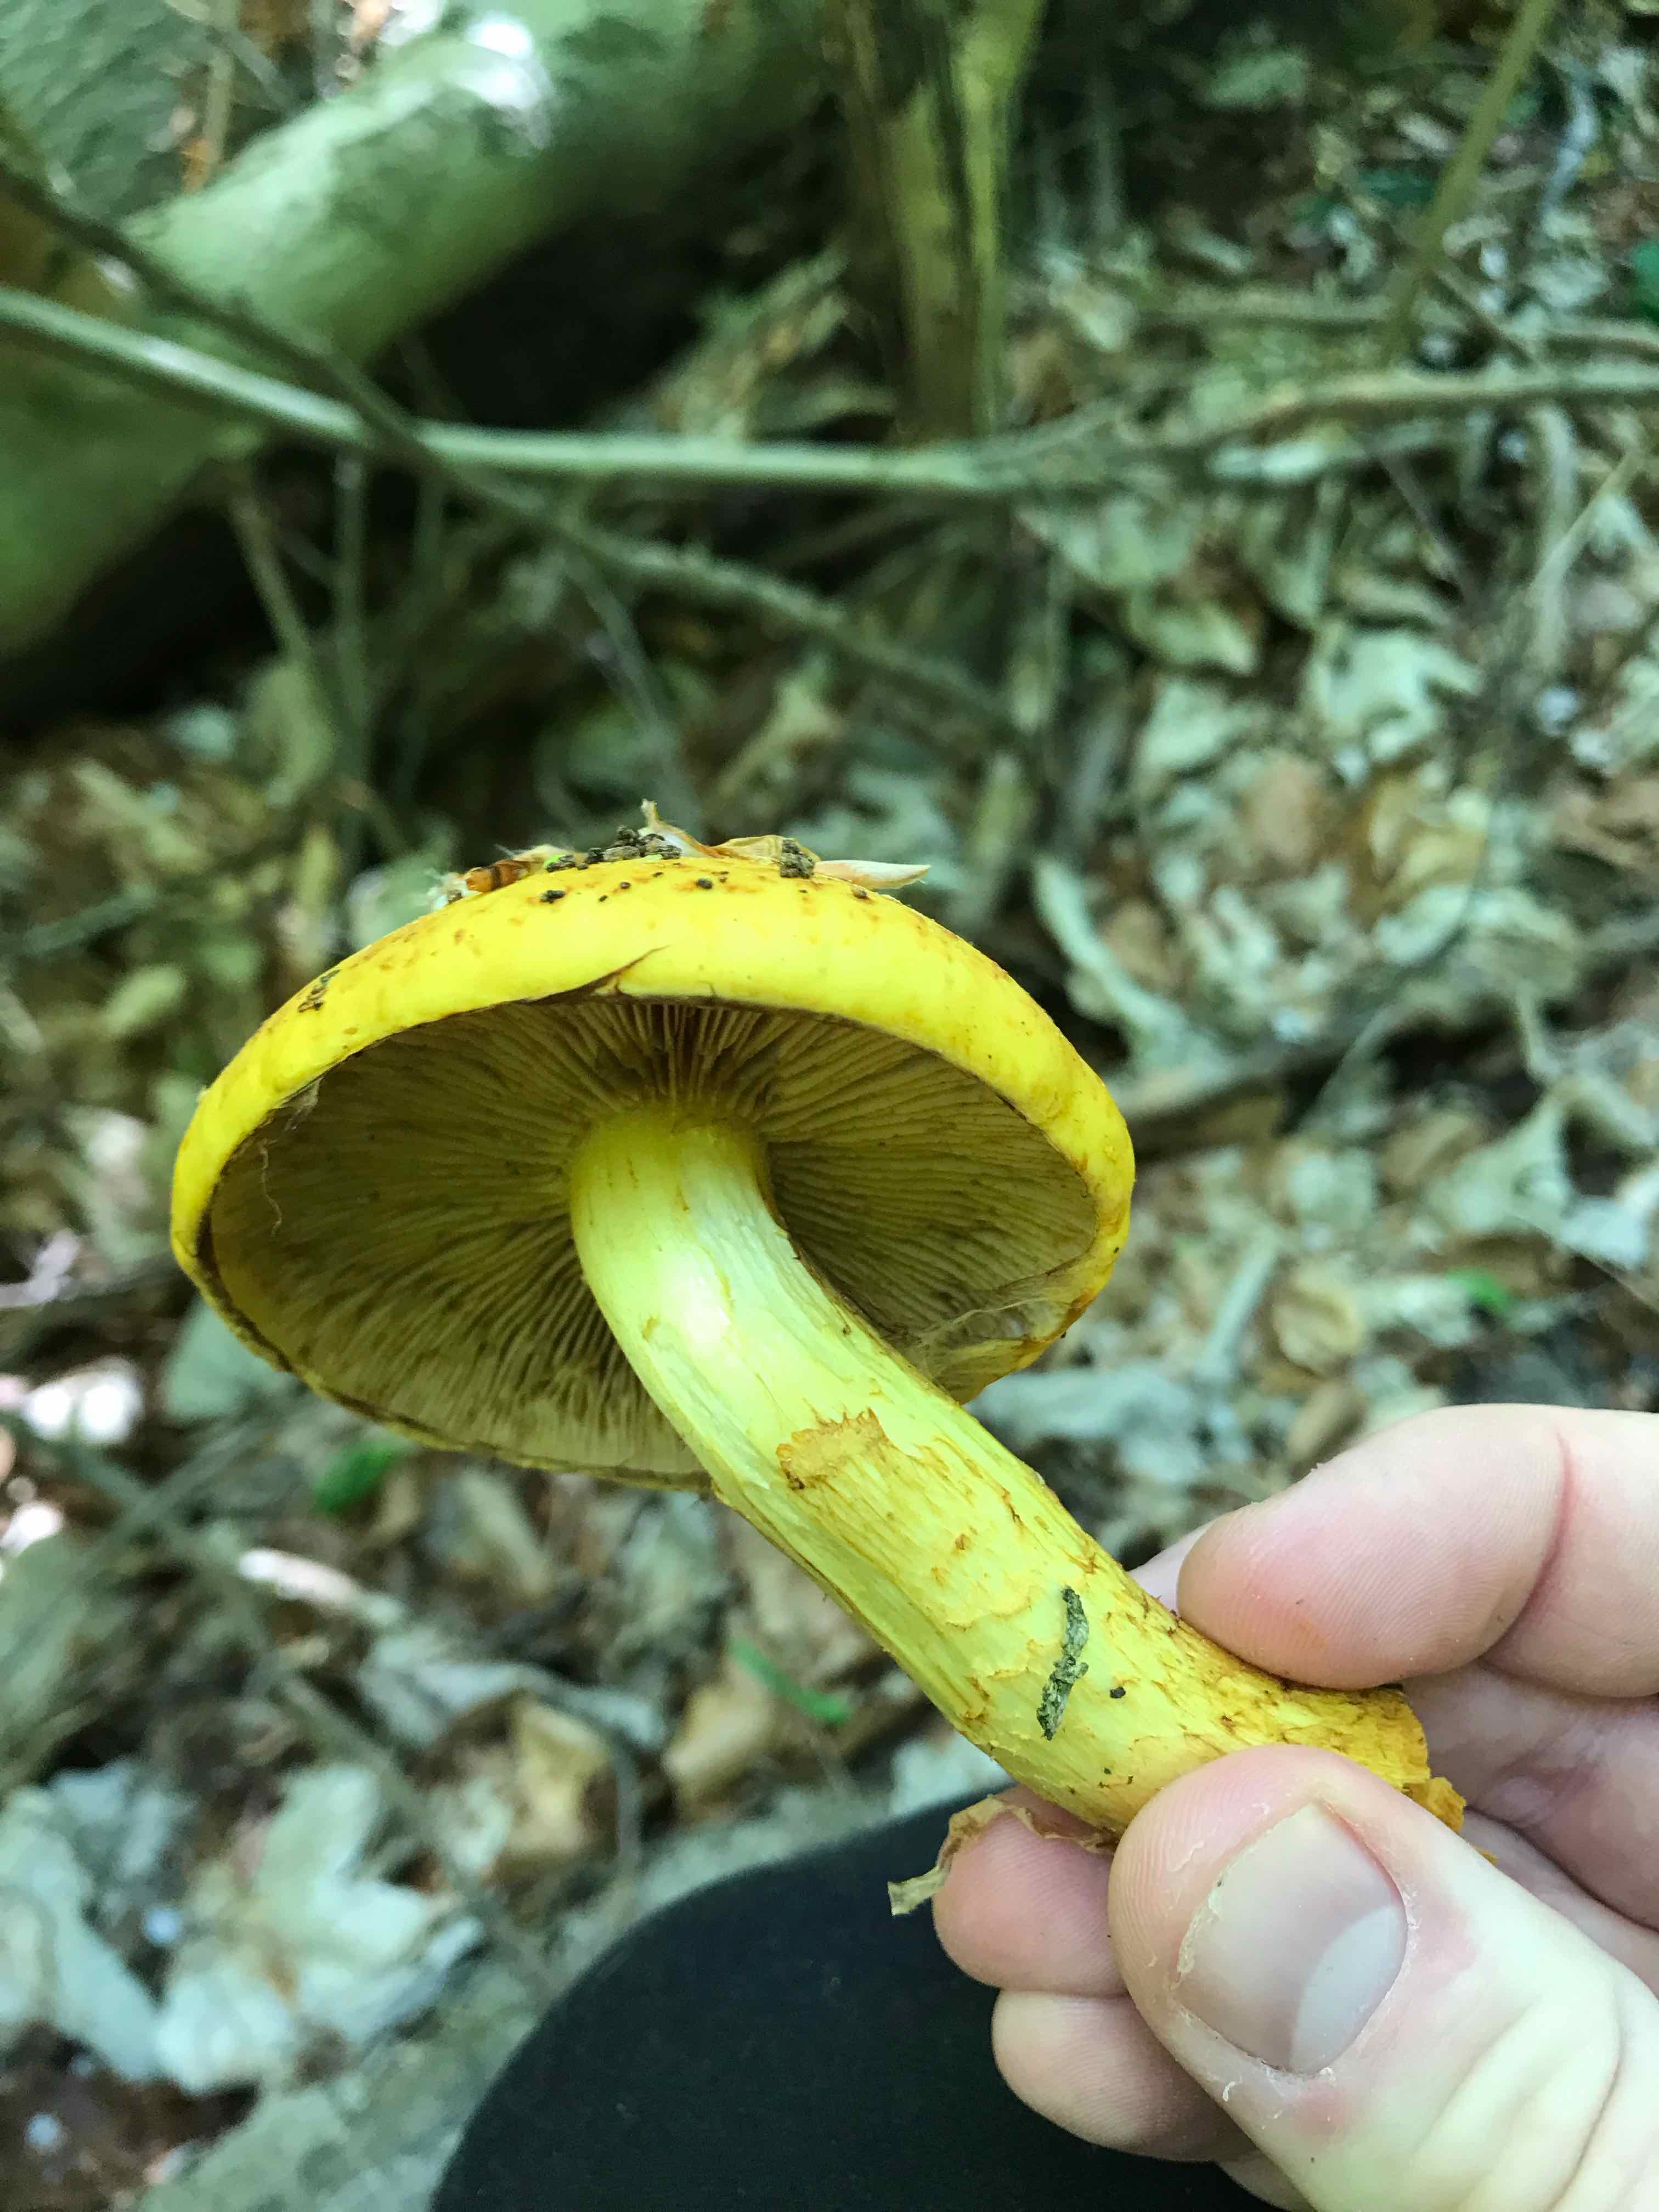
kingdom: Fungi
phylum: Basidiomycota
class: Agaricomycetes
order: Agaricales
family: Strophariaceae
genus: Pholiota
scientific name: Pholiota adiposa
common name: højtsiddende skælhat
